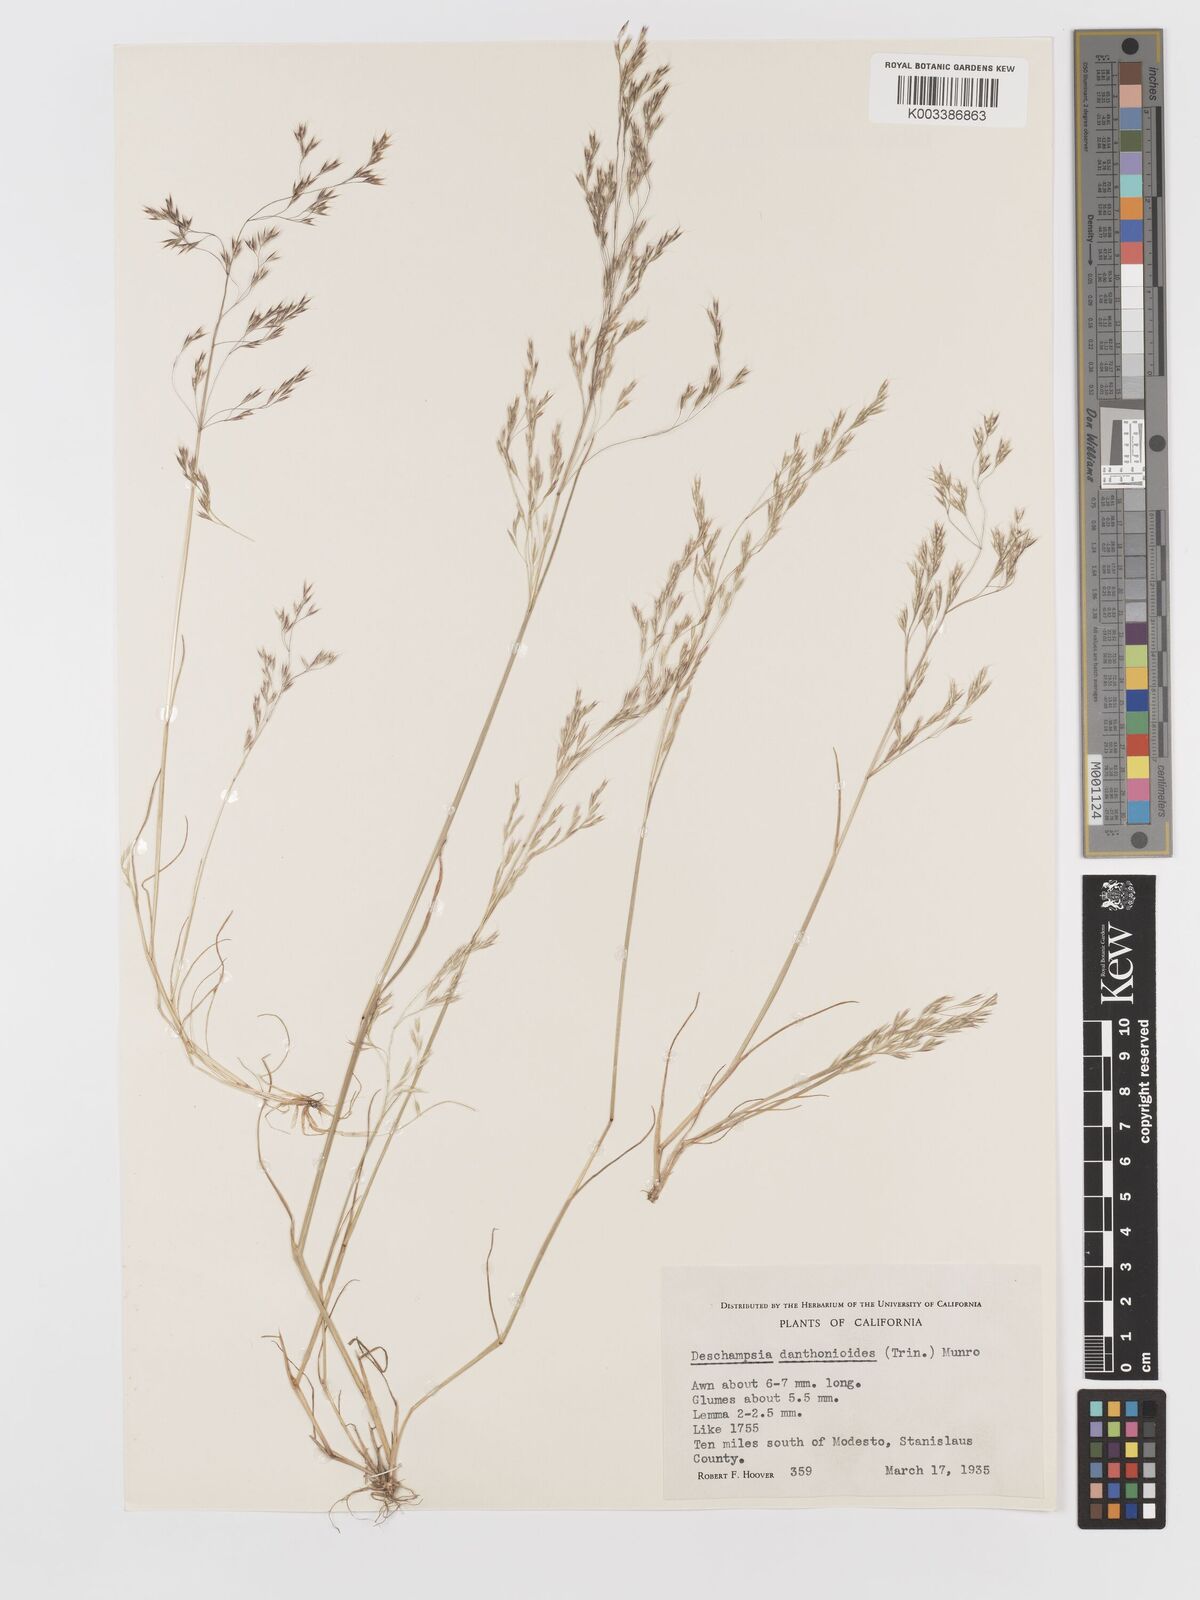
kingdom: Plantae
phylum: Tracheophyta
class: Liliopsida
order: Poales
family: Poaceae
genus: Deschampsia
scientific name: Deschampsia danthonioides
